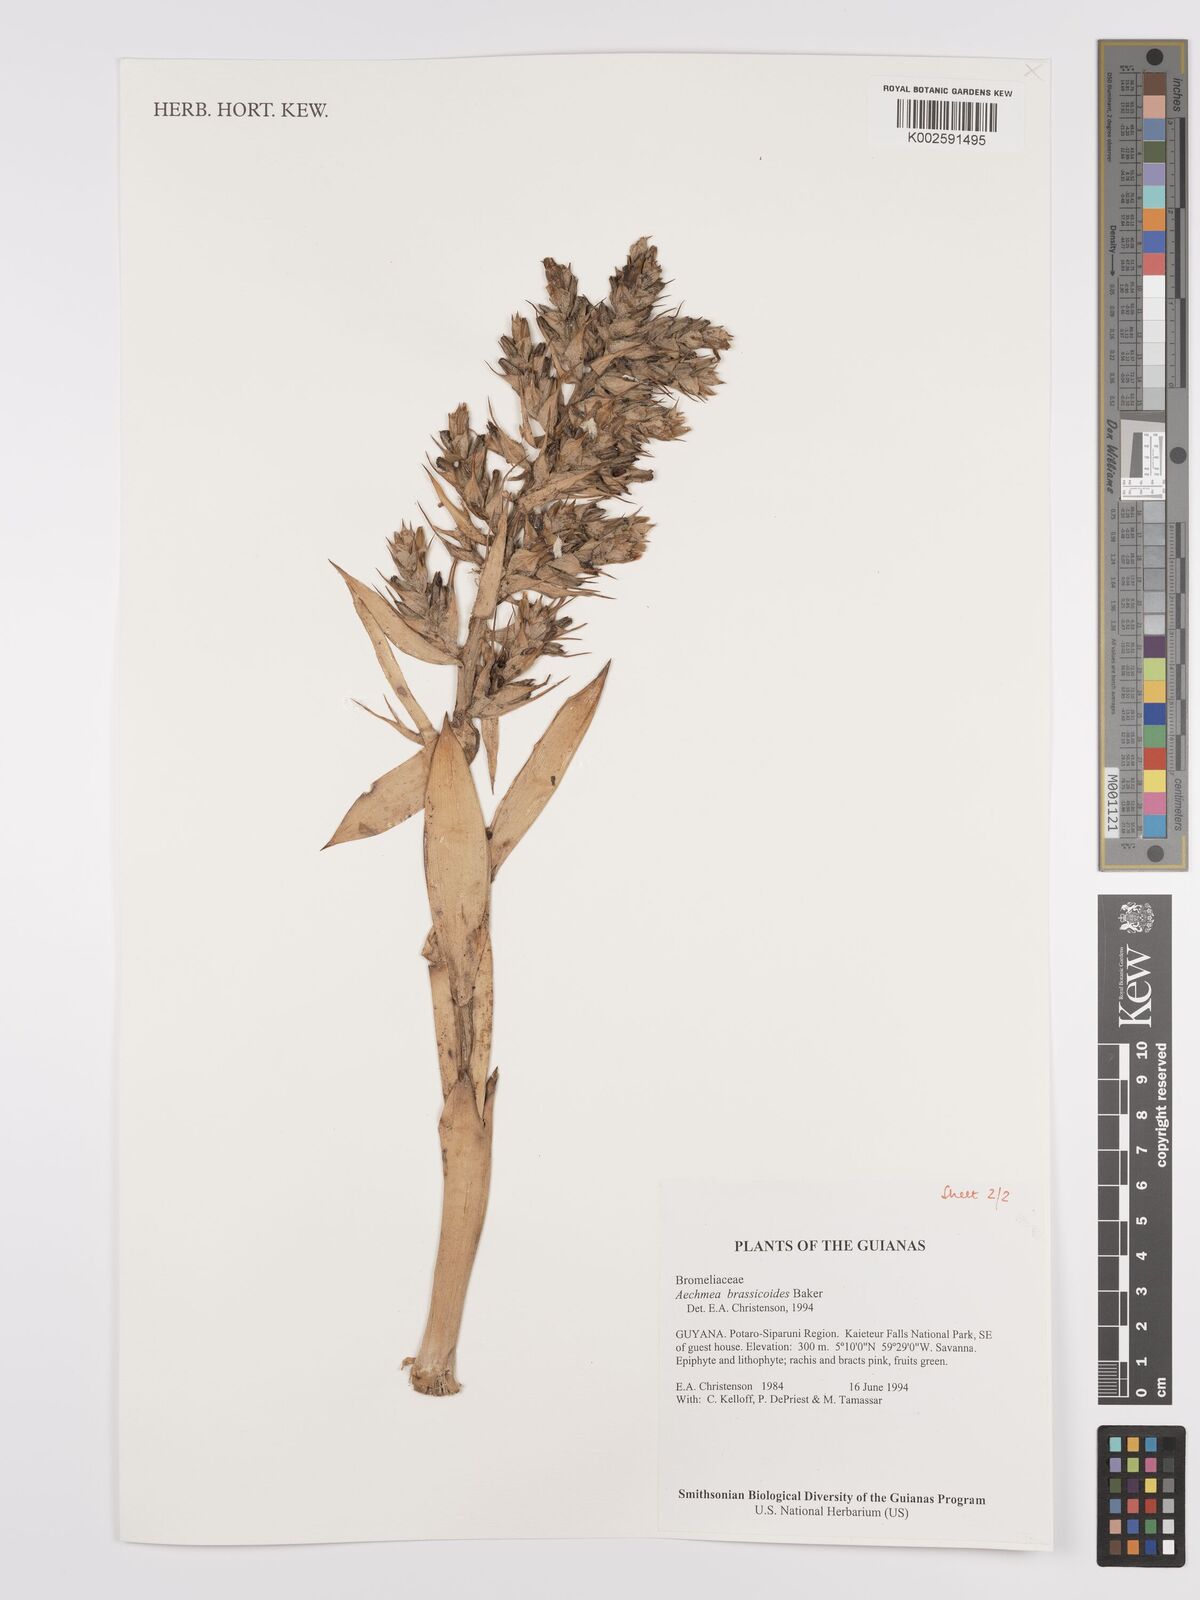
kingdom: Plantae
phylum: Tracheophyta
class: Liliopsida
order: Poales
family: Bromeliaceae
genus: Aechmea
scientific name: Aechmea brassicoides
